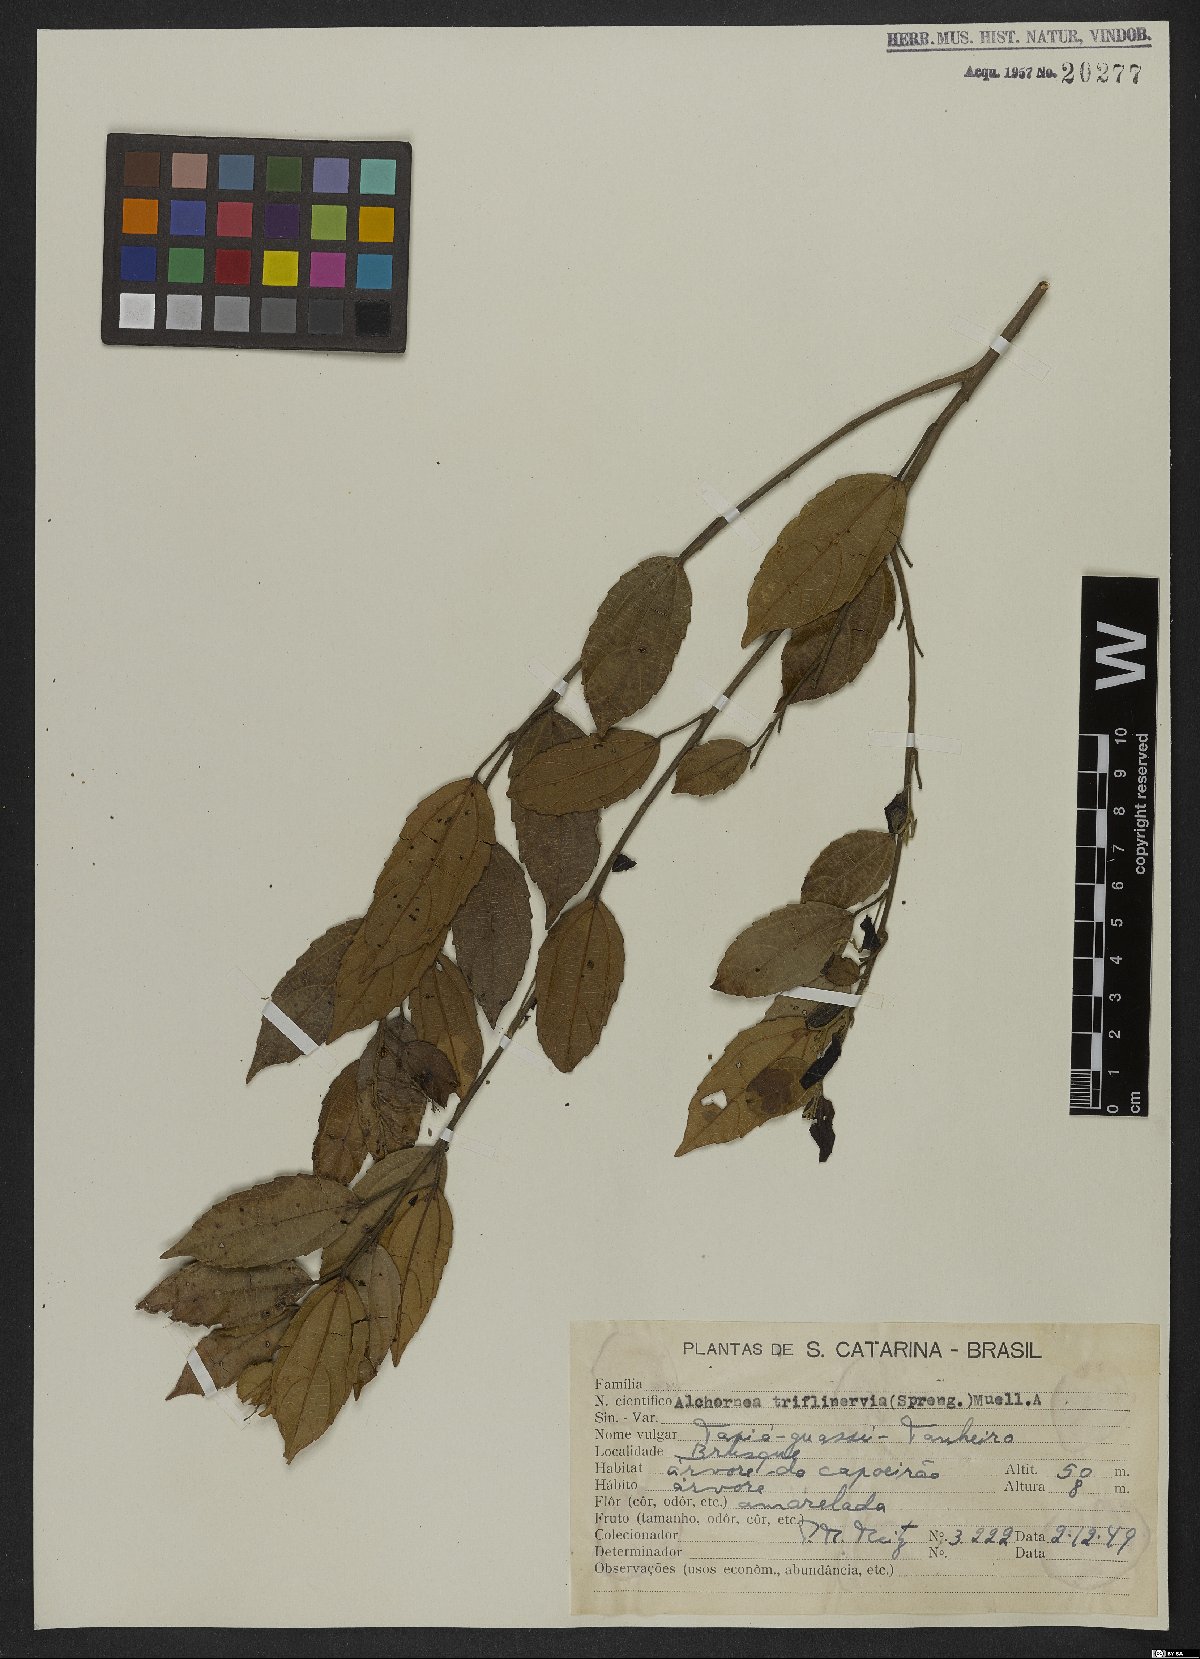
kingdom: Plantae
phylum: Tracheophyta
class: Magnoliopsida
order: Malpighiales
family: Euphorbiaceae
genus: Alchornea
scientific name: Alchornea triplinervia
